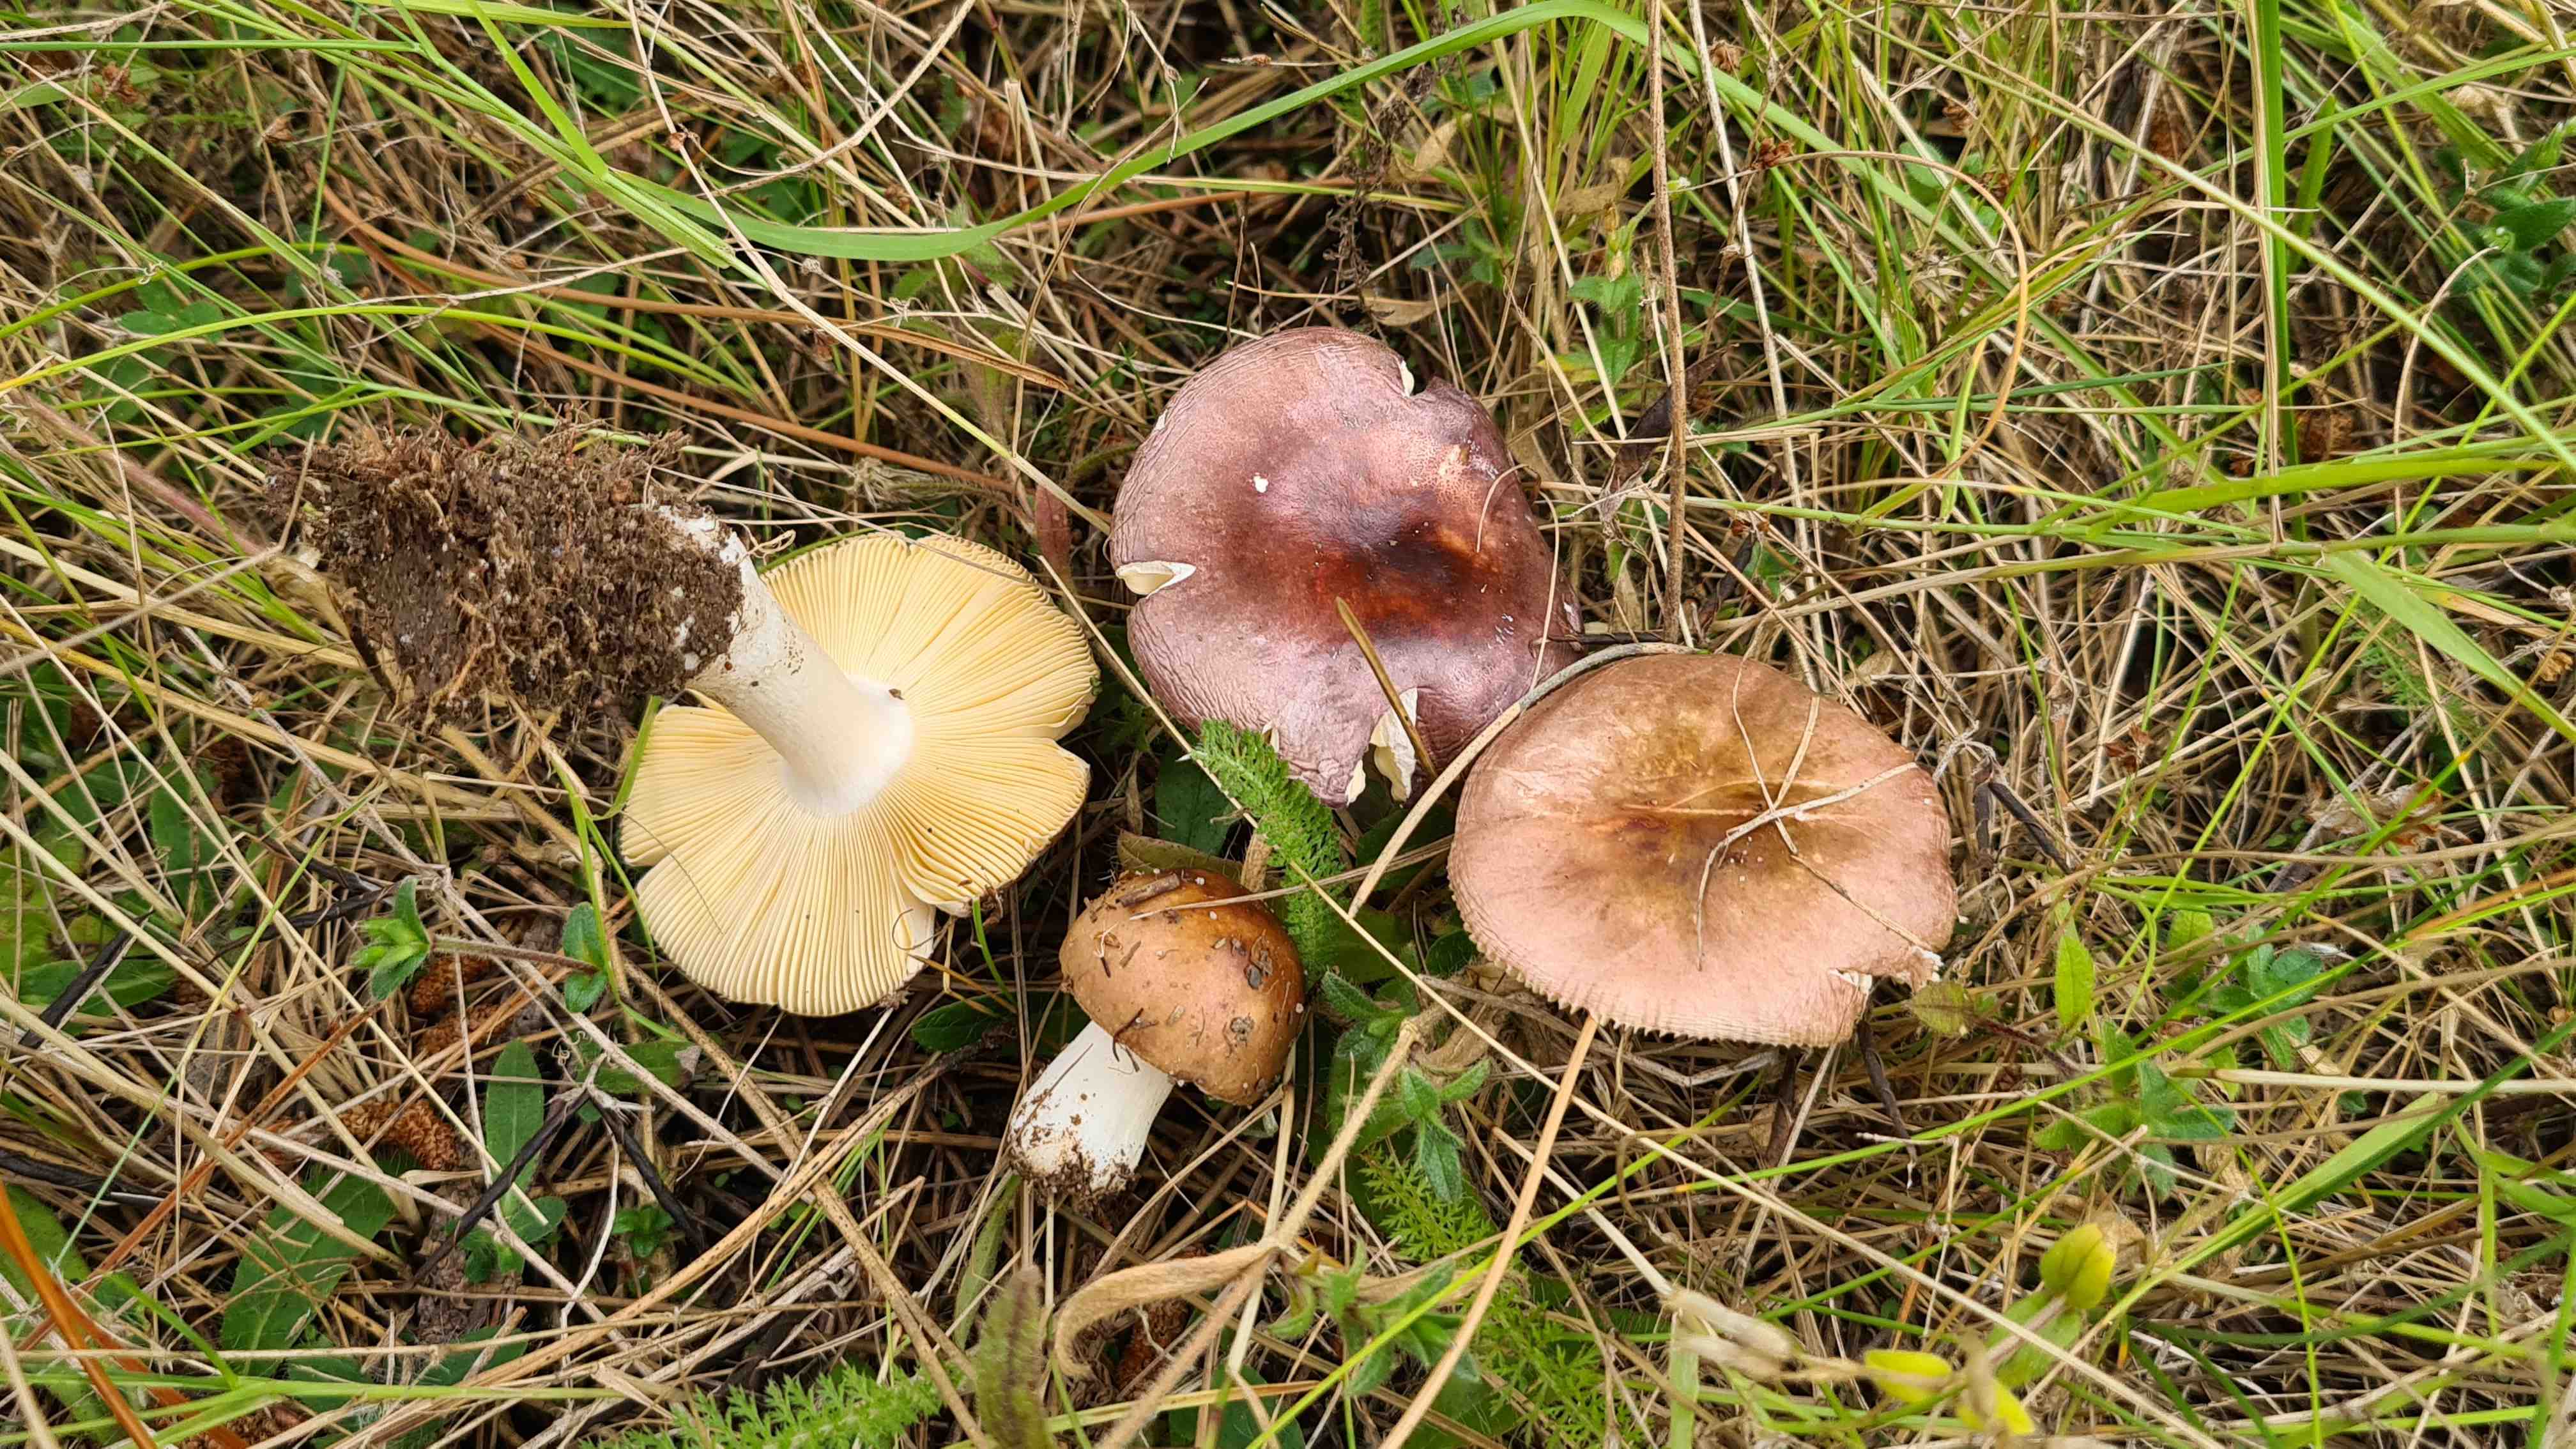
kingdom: Fungi
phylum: Basidiomycota
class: Agaricomycetes
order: Russulales
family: Russulaceae
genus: Russula
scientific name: Russula cessans
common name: fyrre-skørhat
